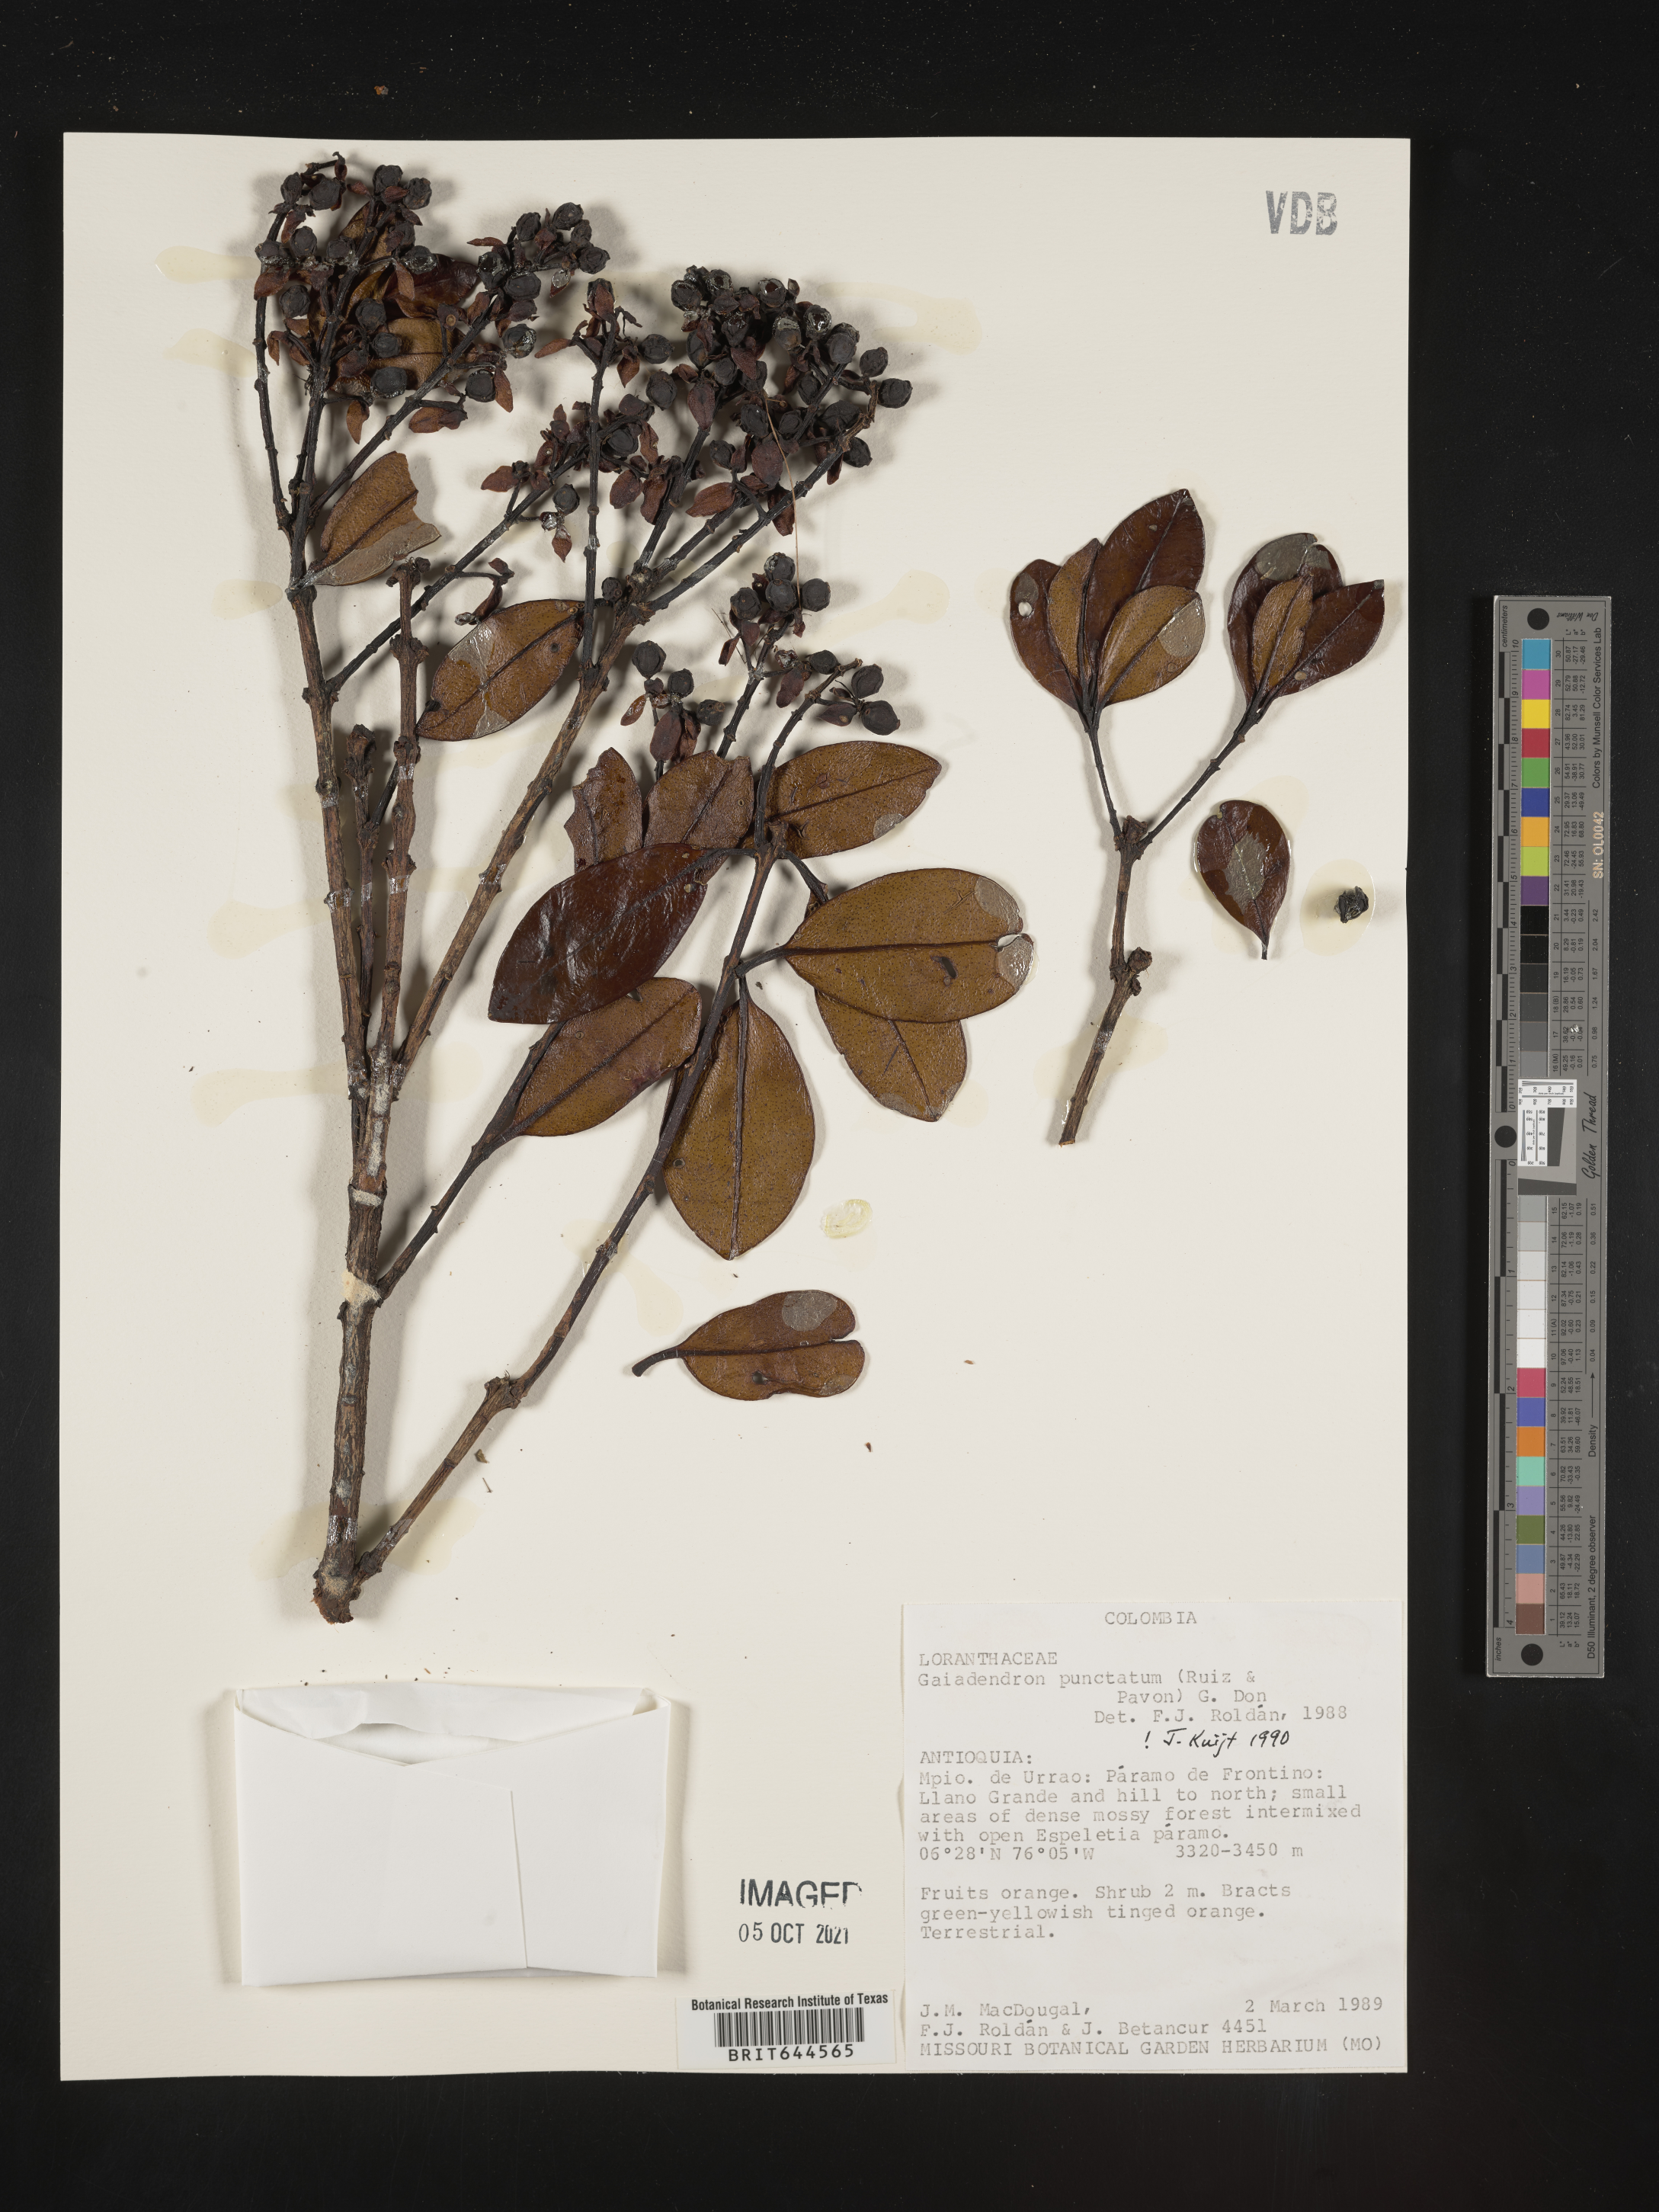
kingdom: Plantae
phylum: Tracheophyta
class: Magnoliopsida
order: Santalales
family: Loranthaceae
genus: Gaiadendron
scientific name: Gaiadendron
